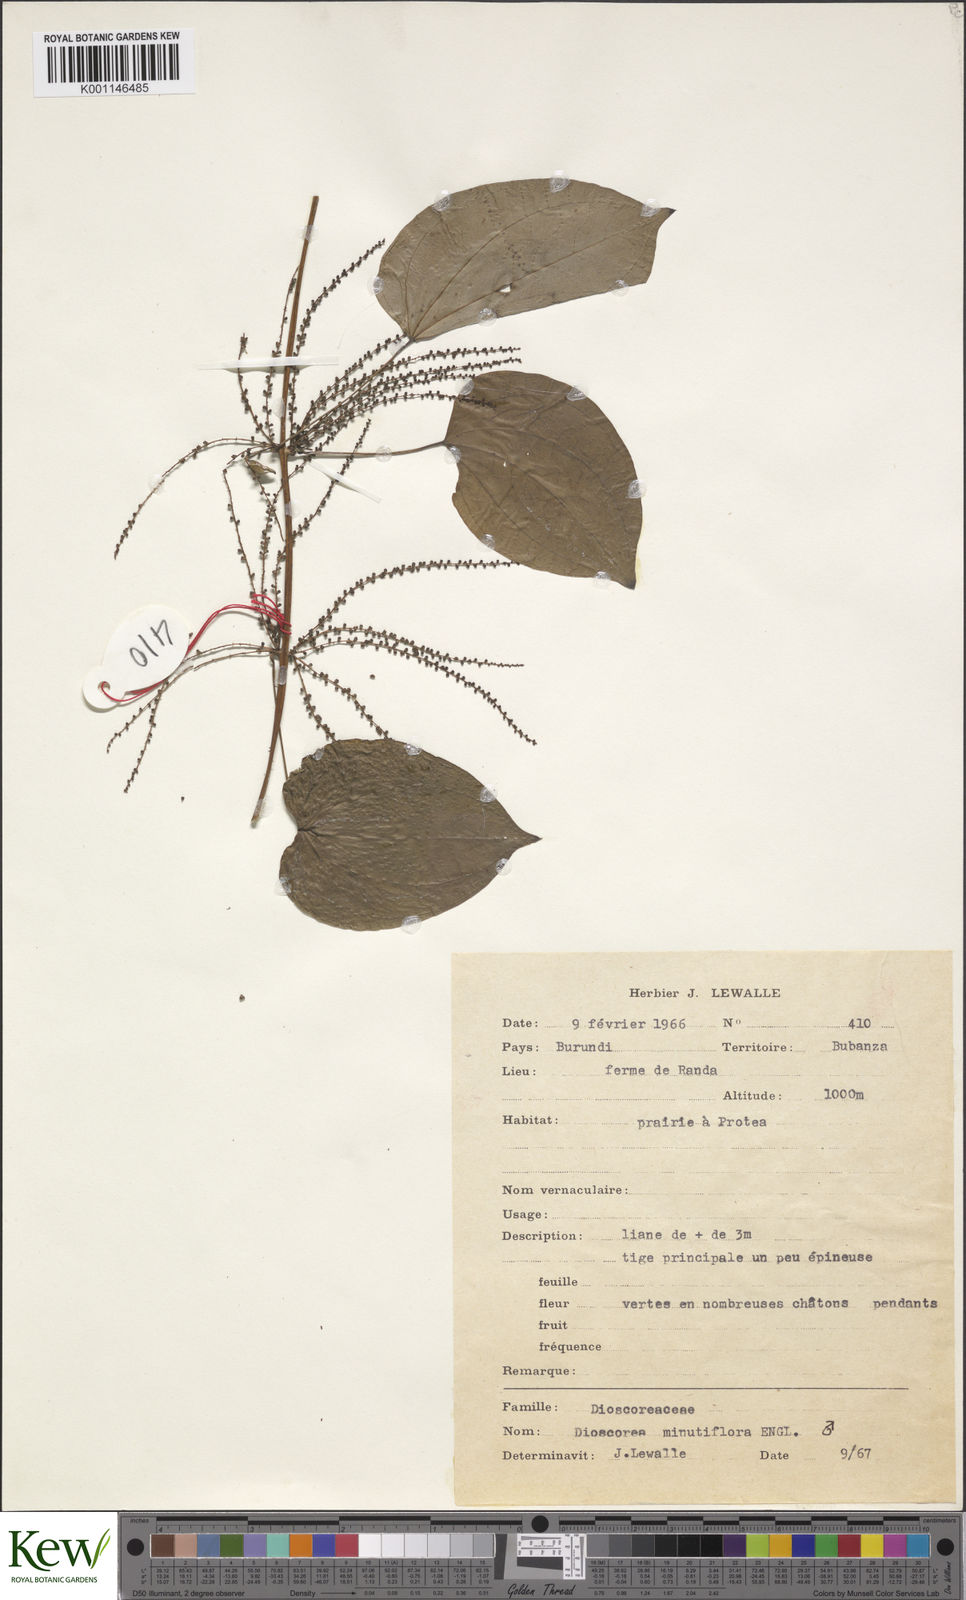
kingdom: Plantae
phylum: Tracheophyta
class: Liliopsida
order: Dioscoreales
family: Dioscoreaceae
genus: Dioscorea
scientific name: Dioscorea minutiflora
